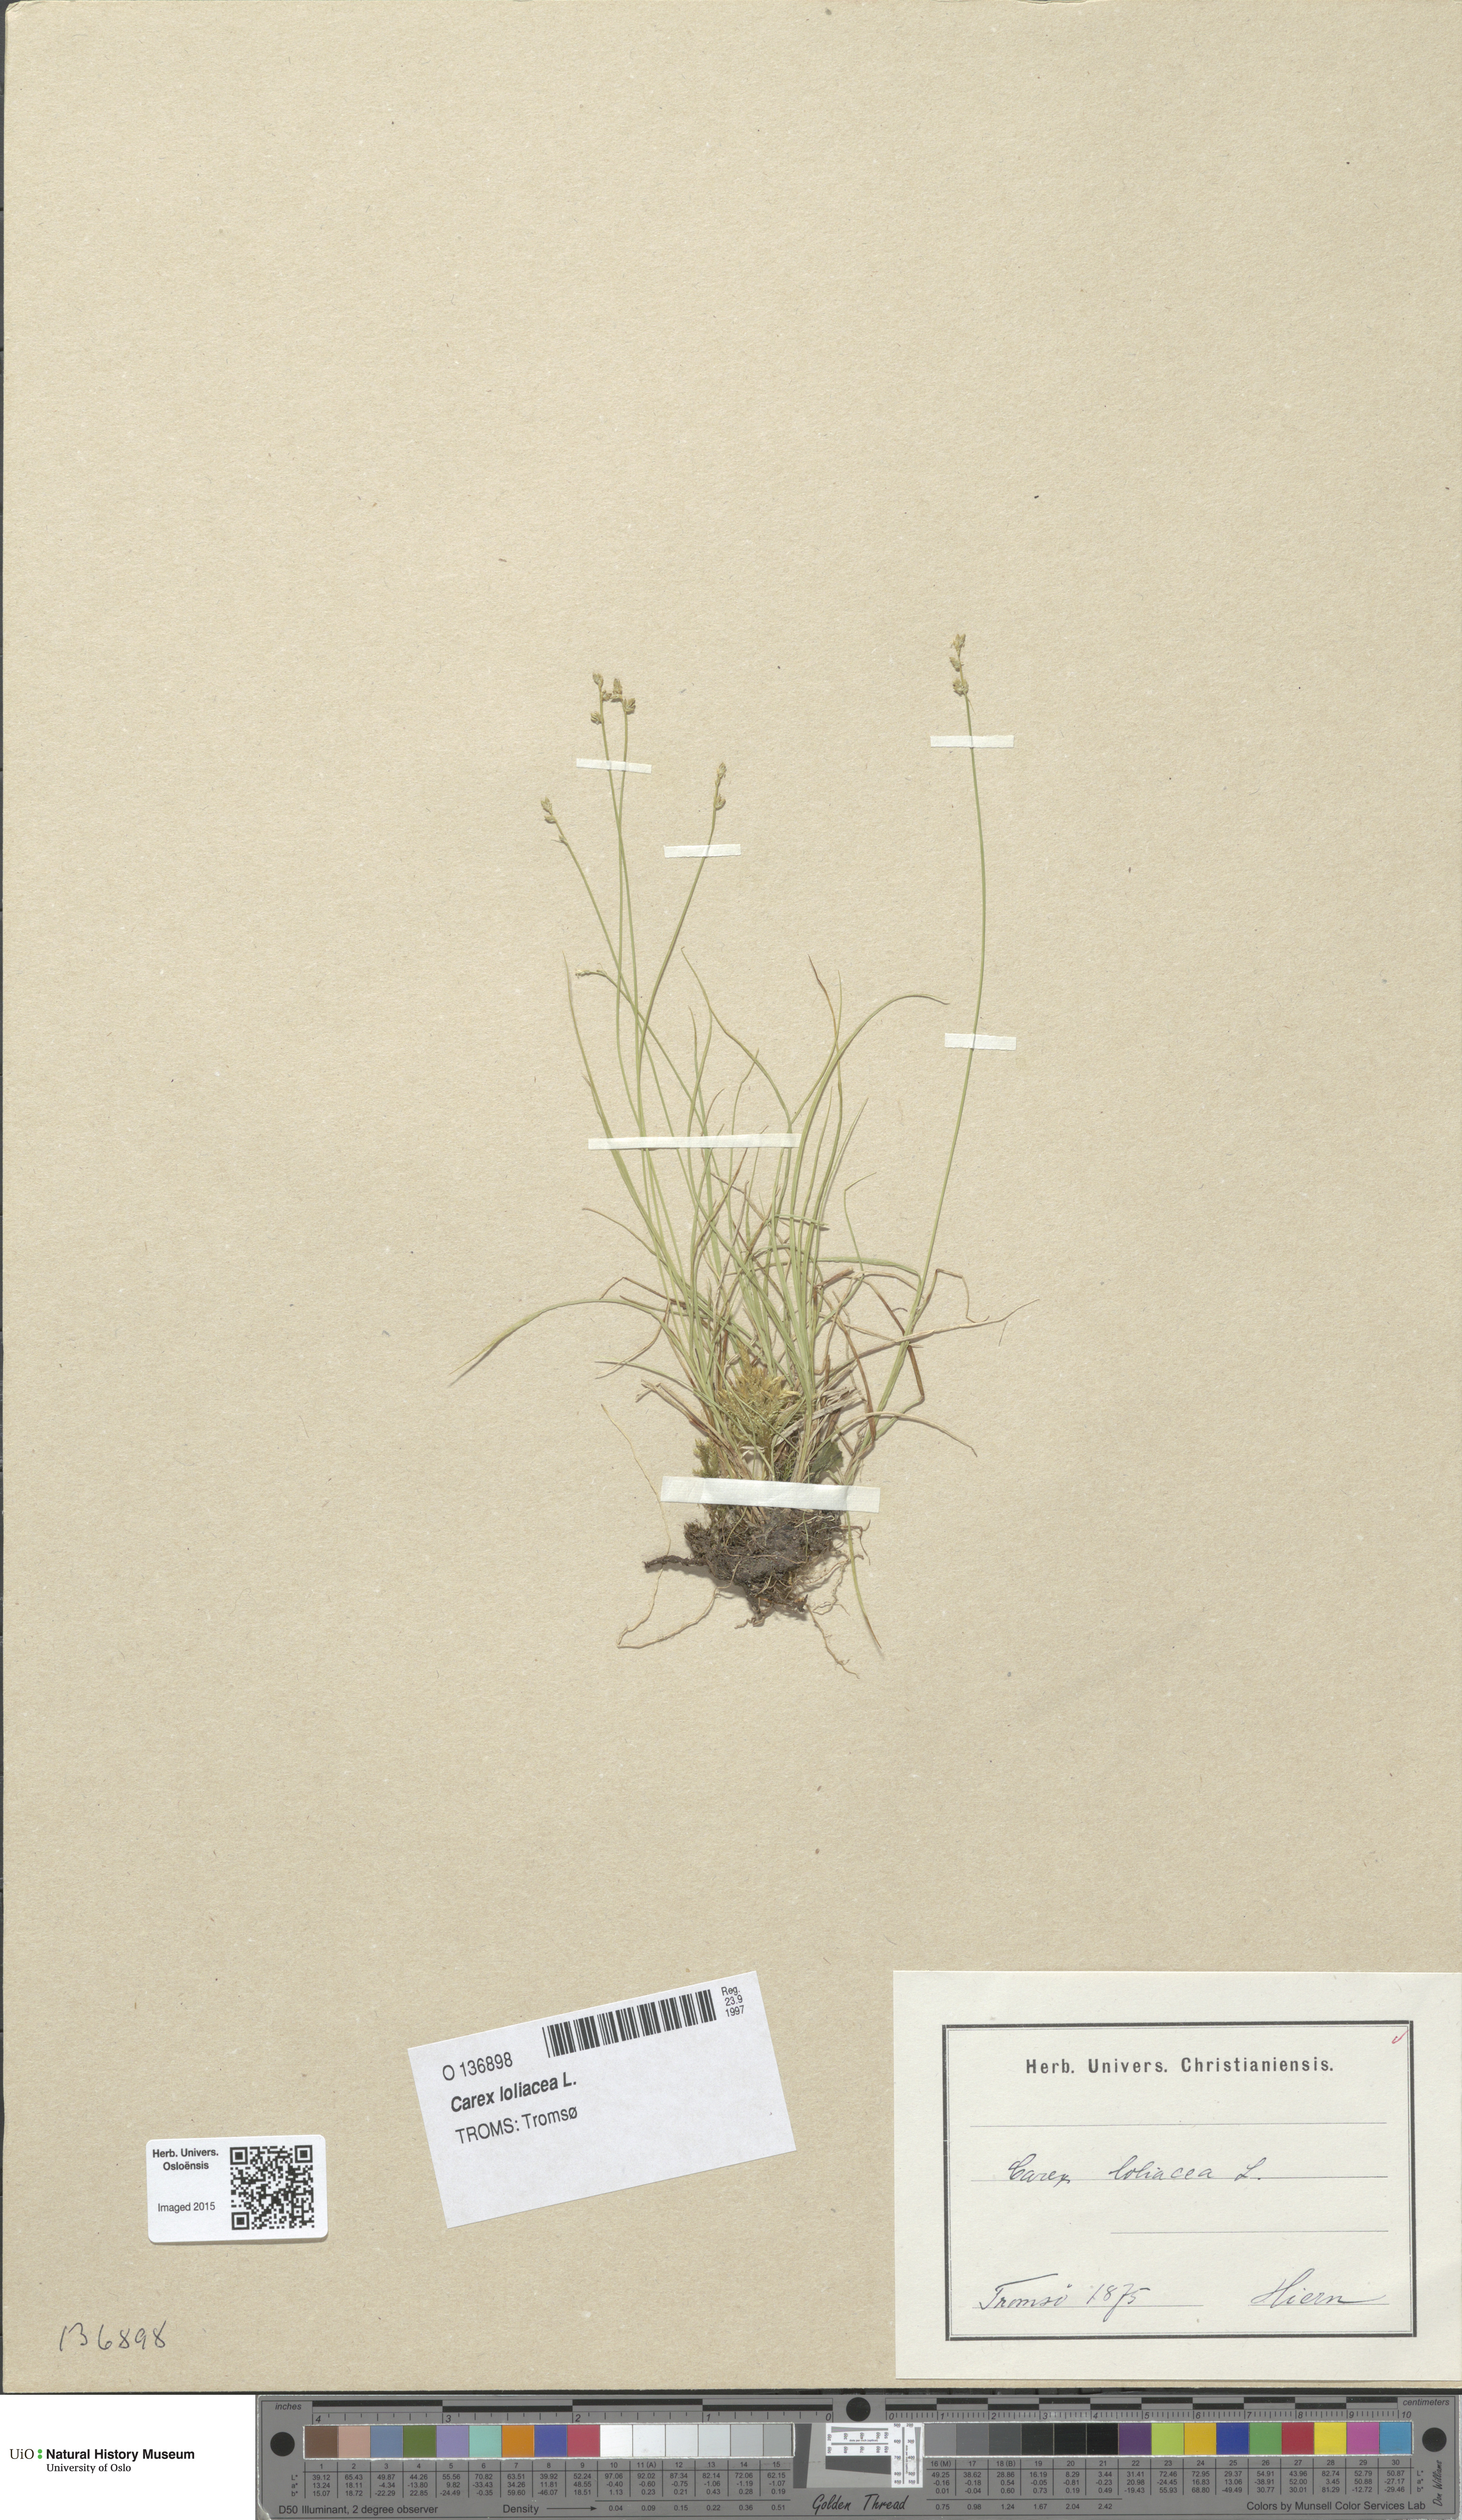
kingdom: Plantae
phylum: Tracheophyta
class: Liliopsida
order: Poales
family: Cyperaceae
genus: Carex
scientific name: Carex loliacea
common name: Ryegrass sedge
